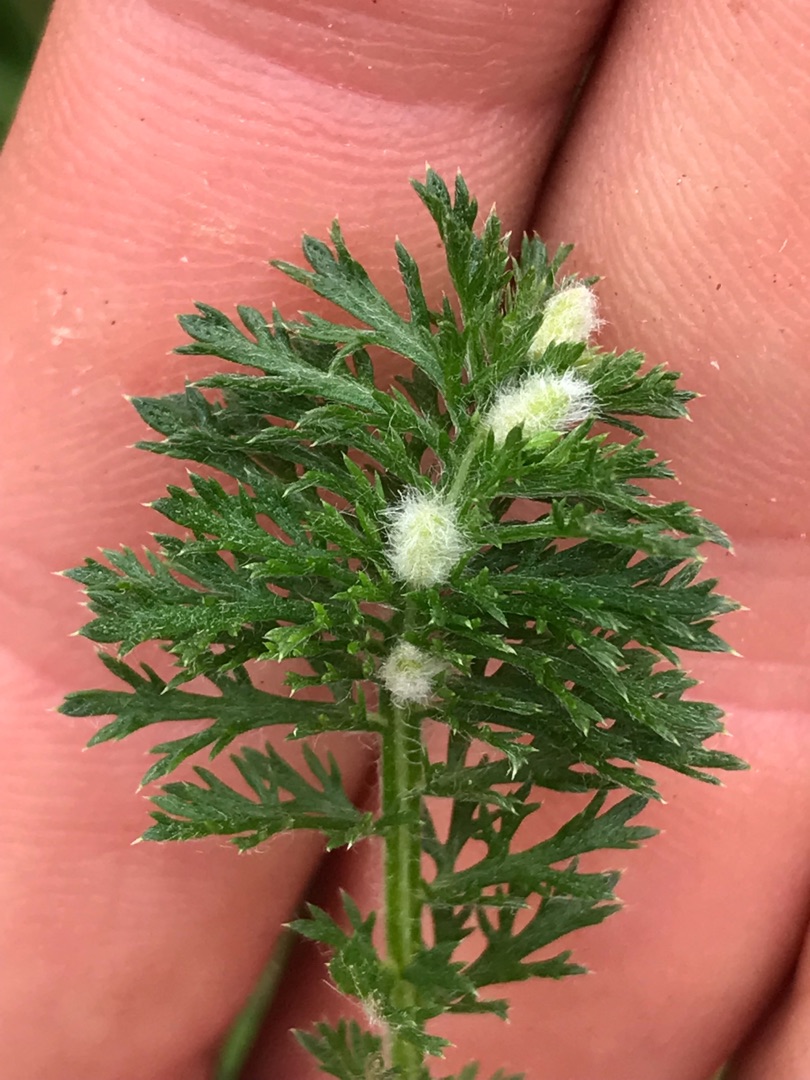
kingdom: Animalia
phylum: Arthropoda
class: Insecta
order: Diptera
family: Cecidomyiidae
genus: Rhopalomyia
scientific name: Rhopalomyia millefolii
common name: Røllikegalmyg
